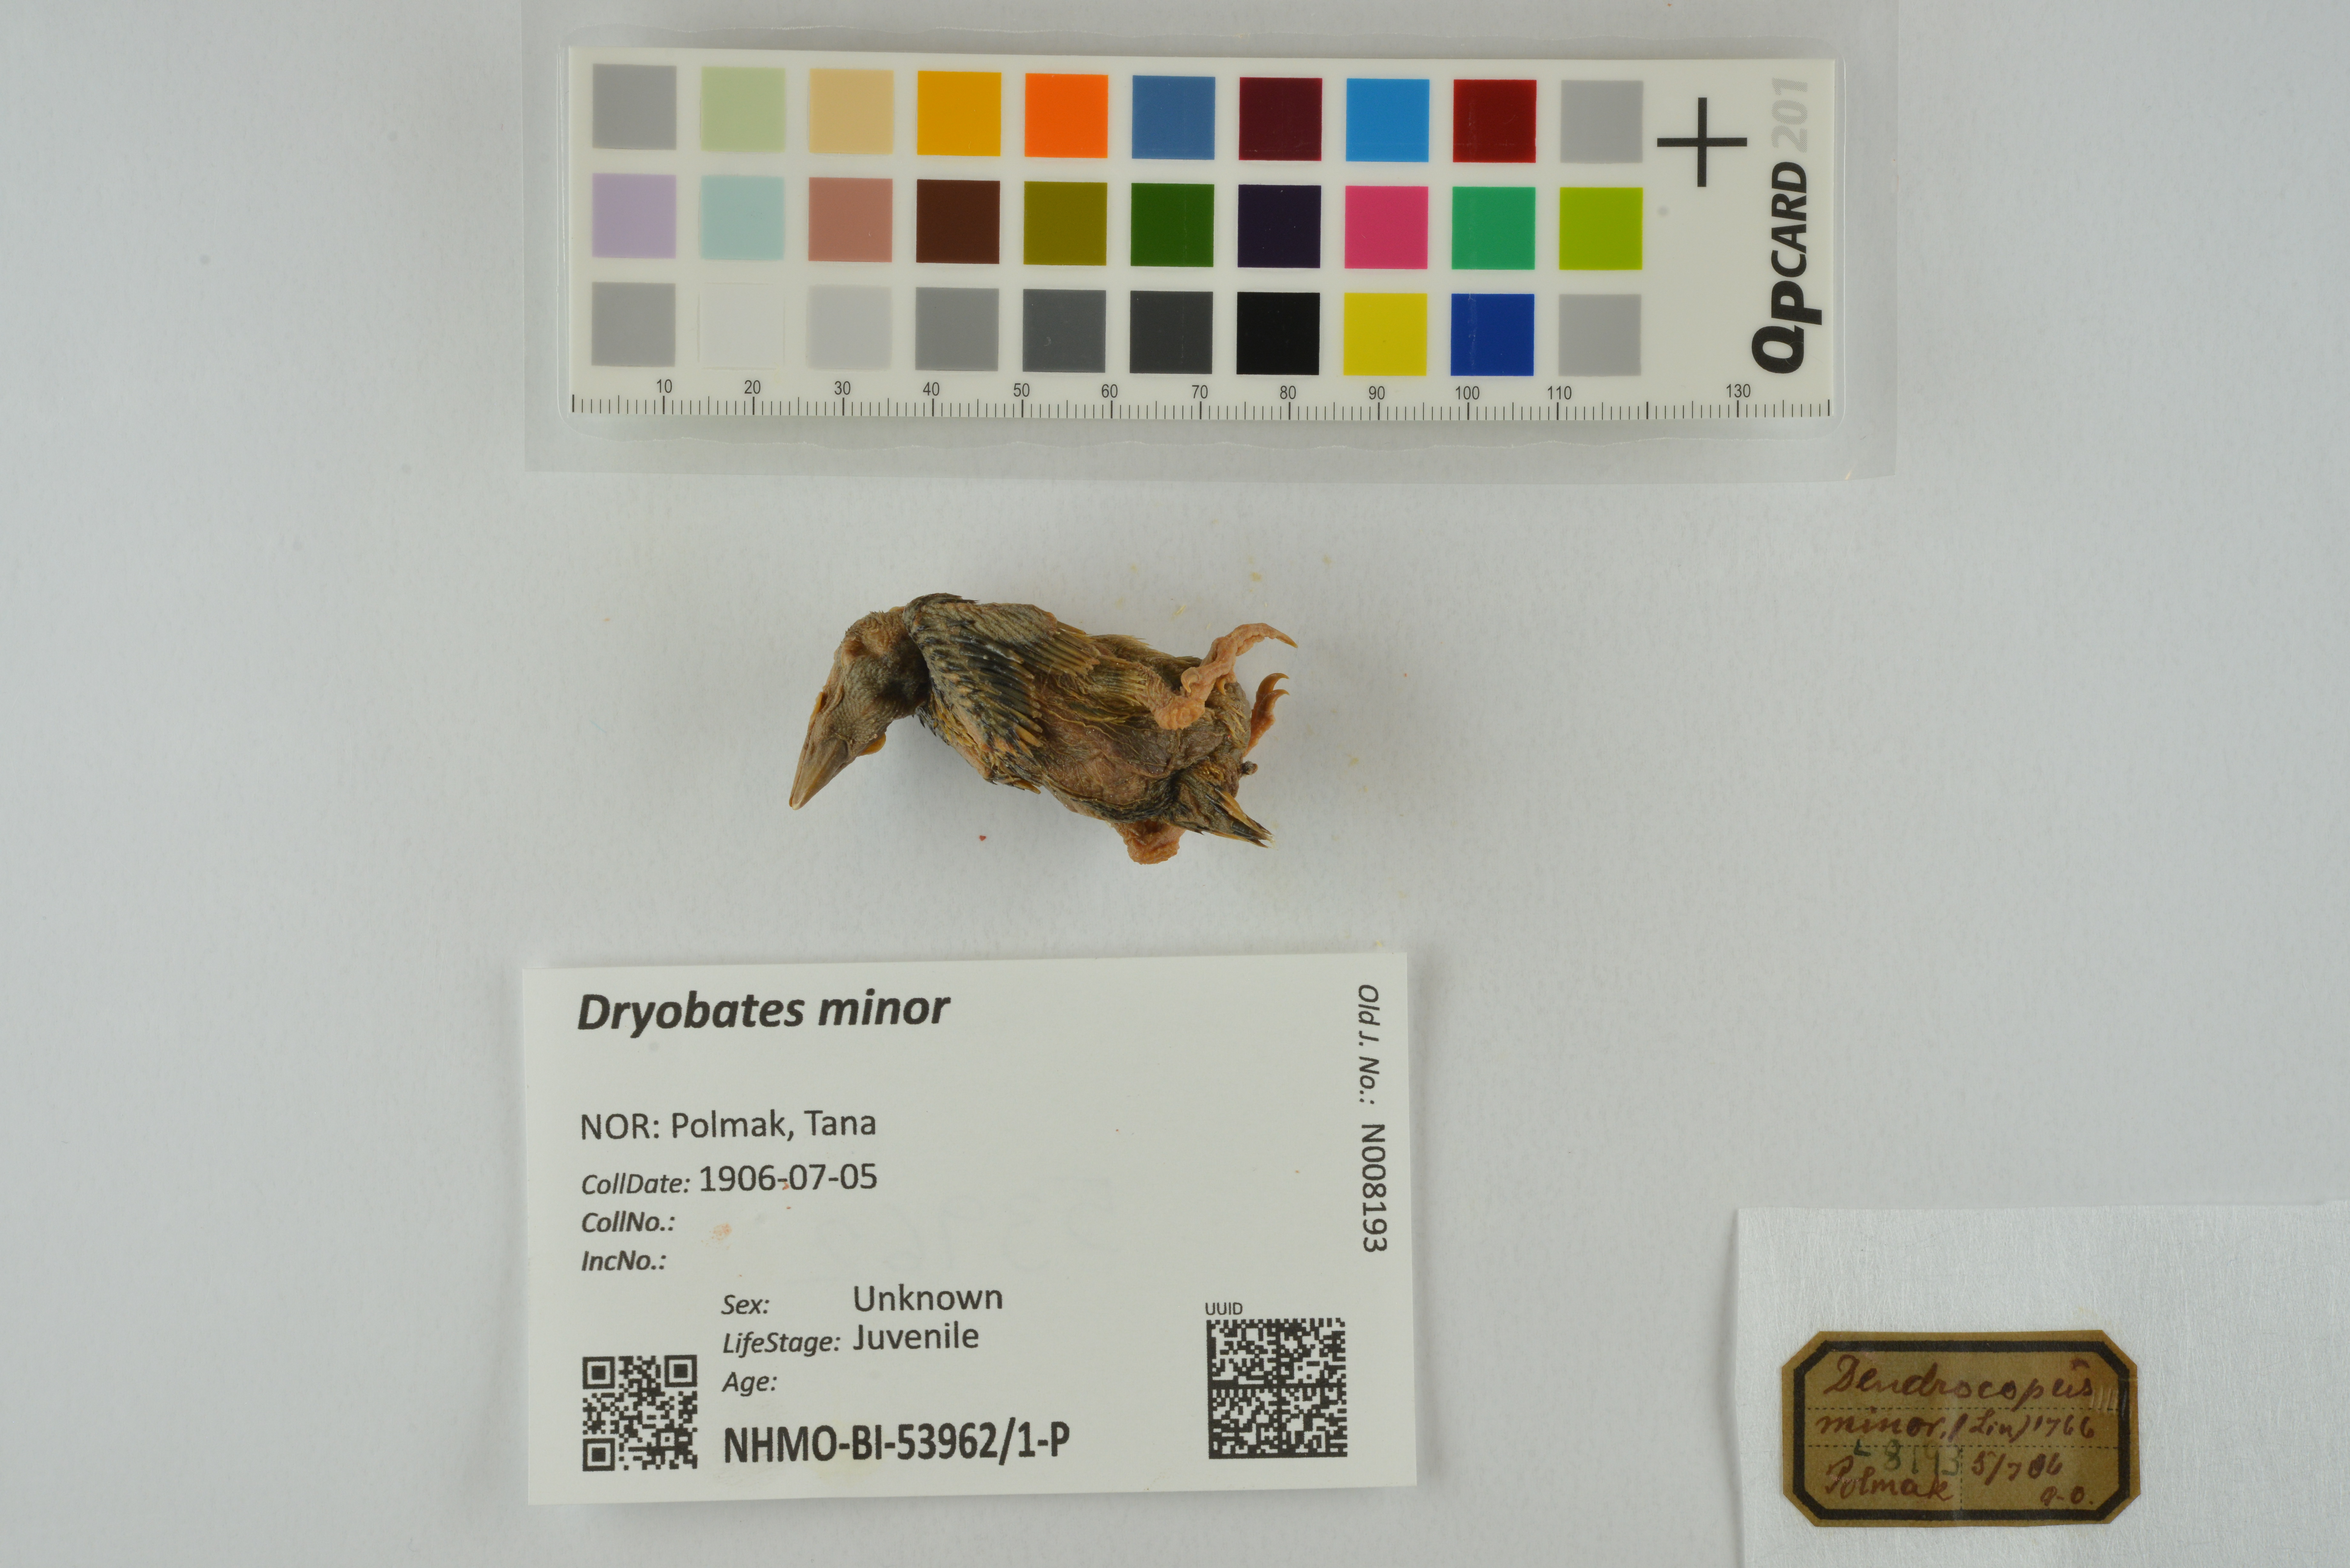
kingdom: Animalia
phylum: Chordata
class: Aves
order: Piciformes
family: Picidae
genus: Dryobates
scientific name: Dryobates minor
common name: Lesser spotted woodpecker
